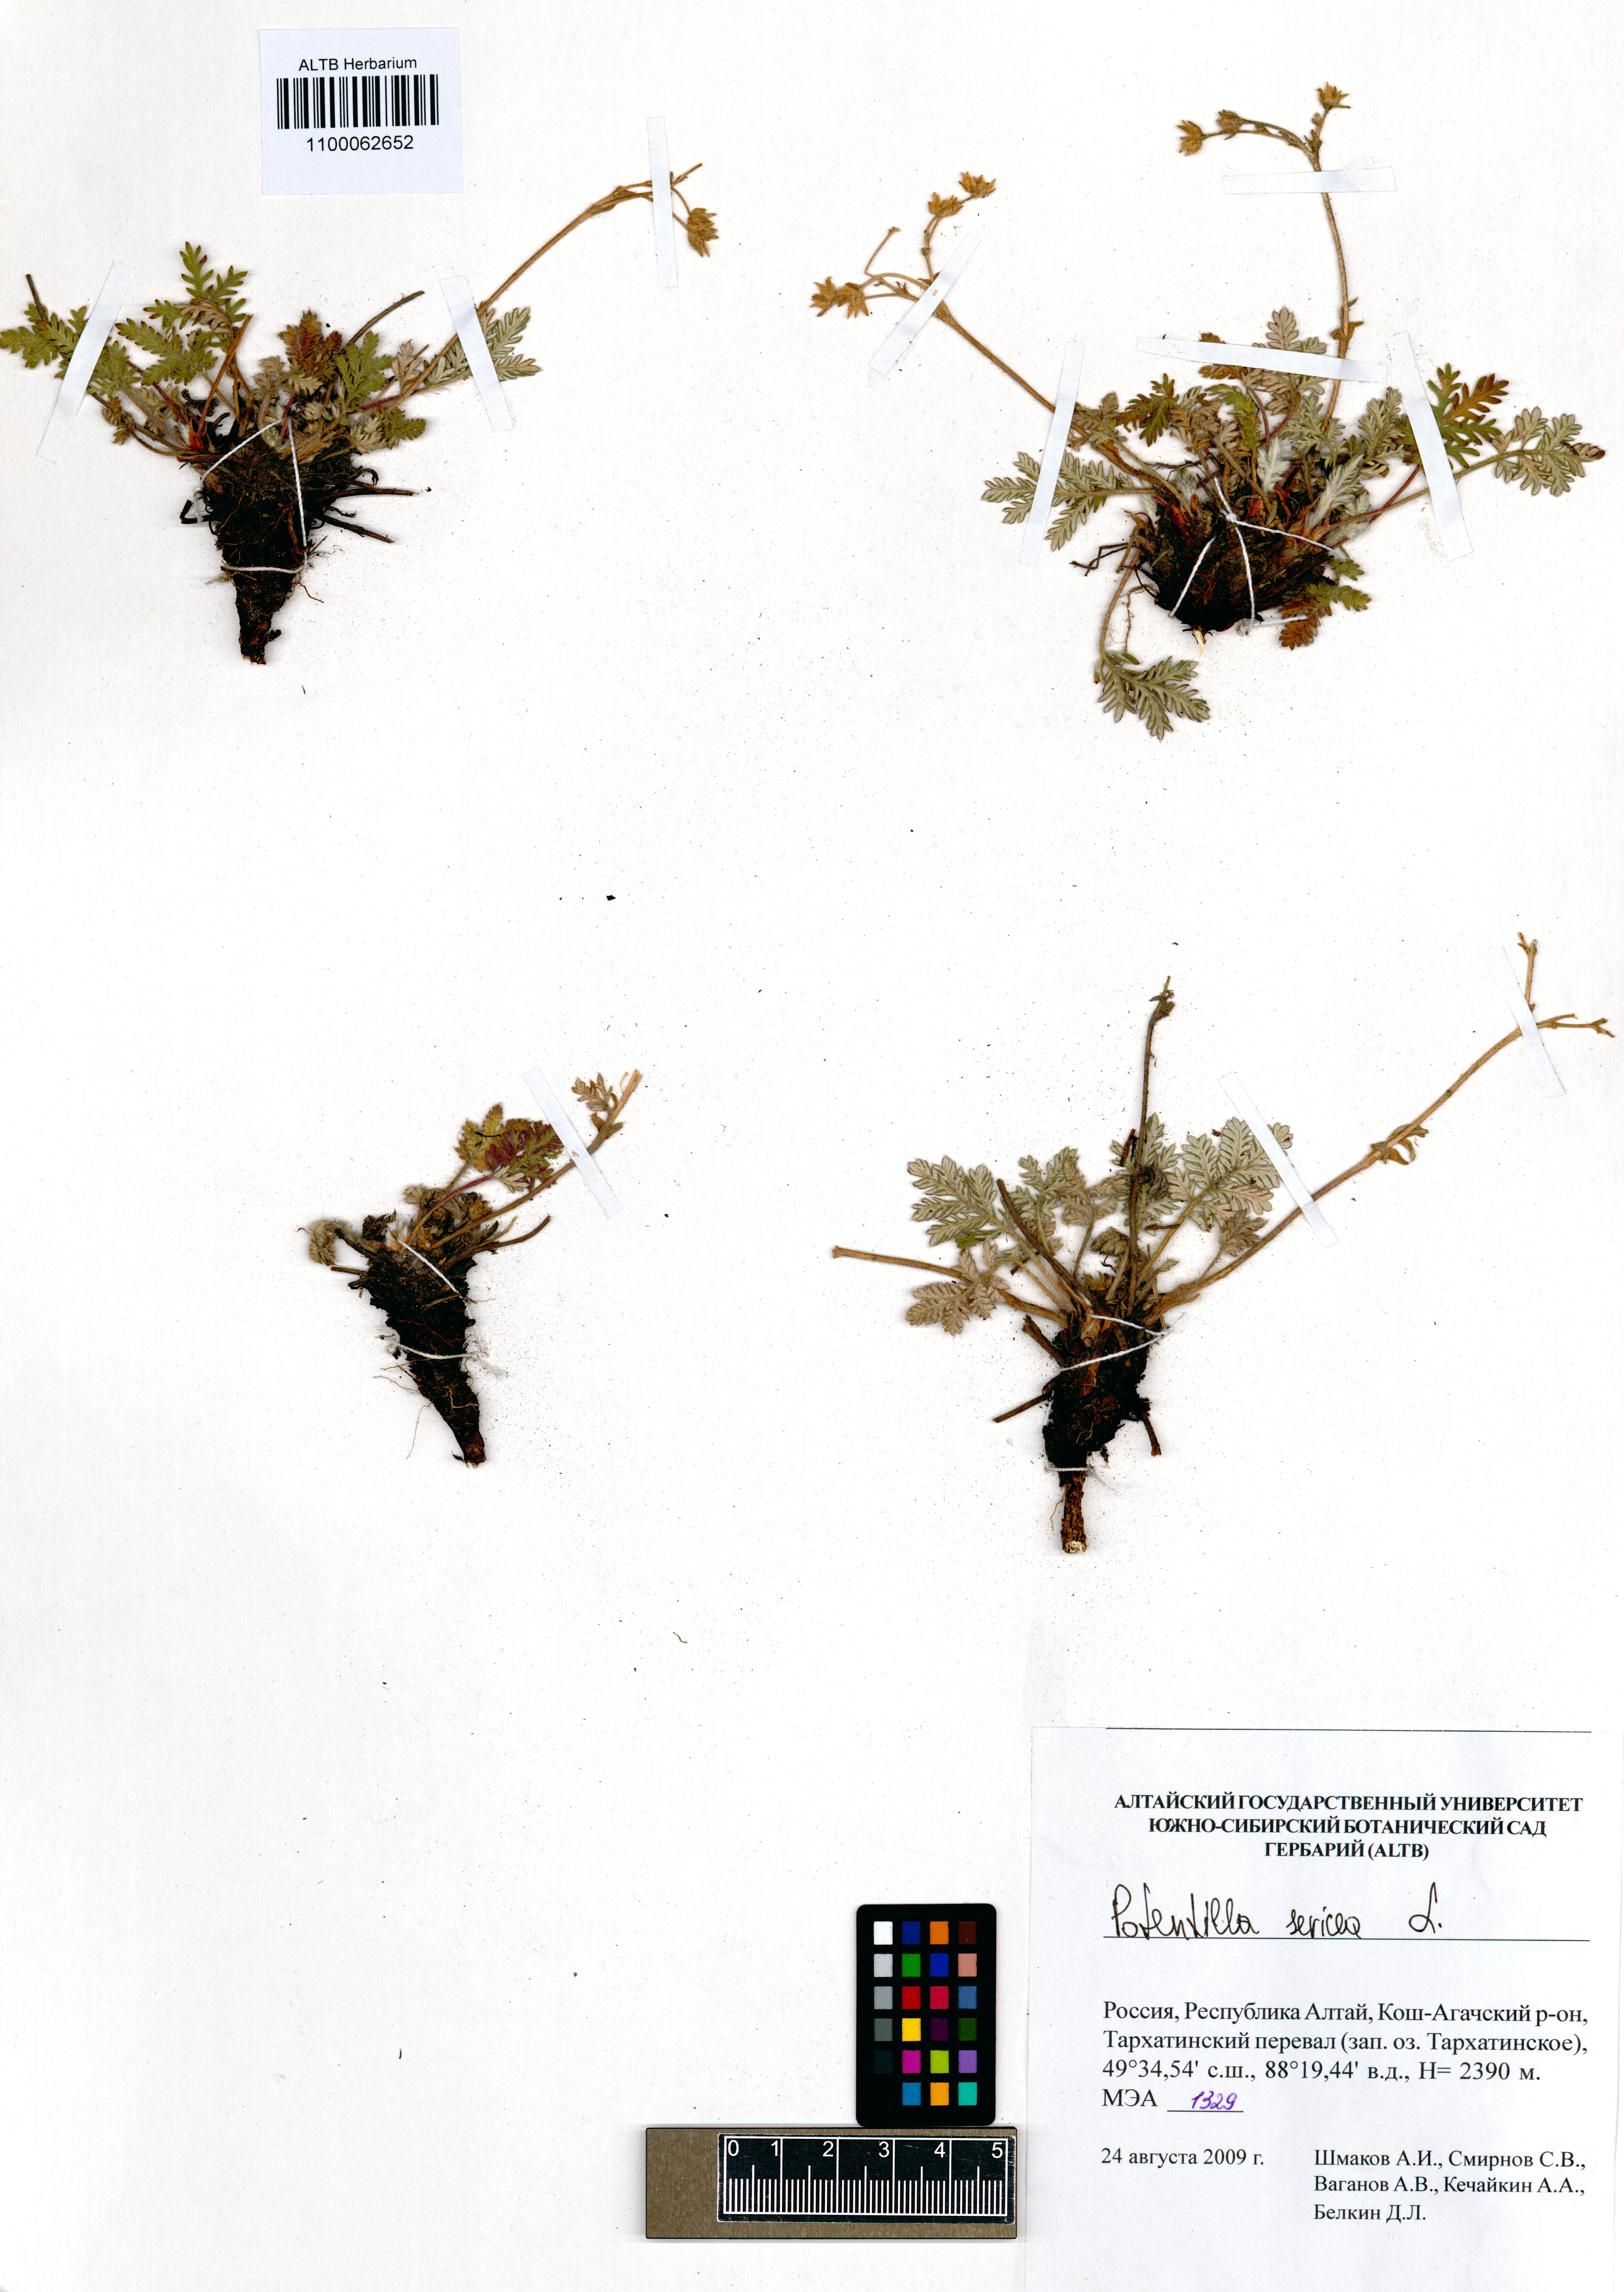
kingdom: Plantae
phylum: Tracheophyta
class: Magnoliopsida
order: Rosales
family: Rosaceae
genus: Potentilla
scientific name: Potentilla sericea
